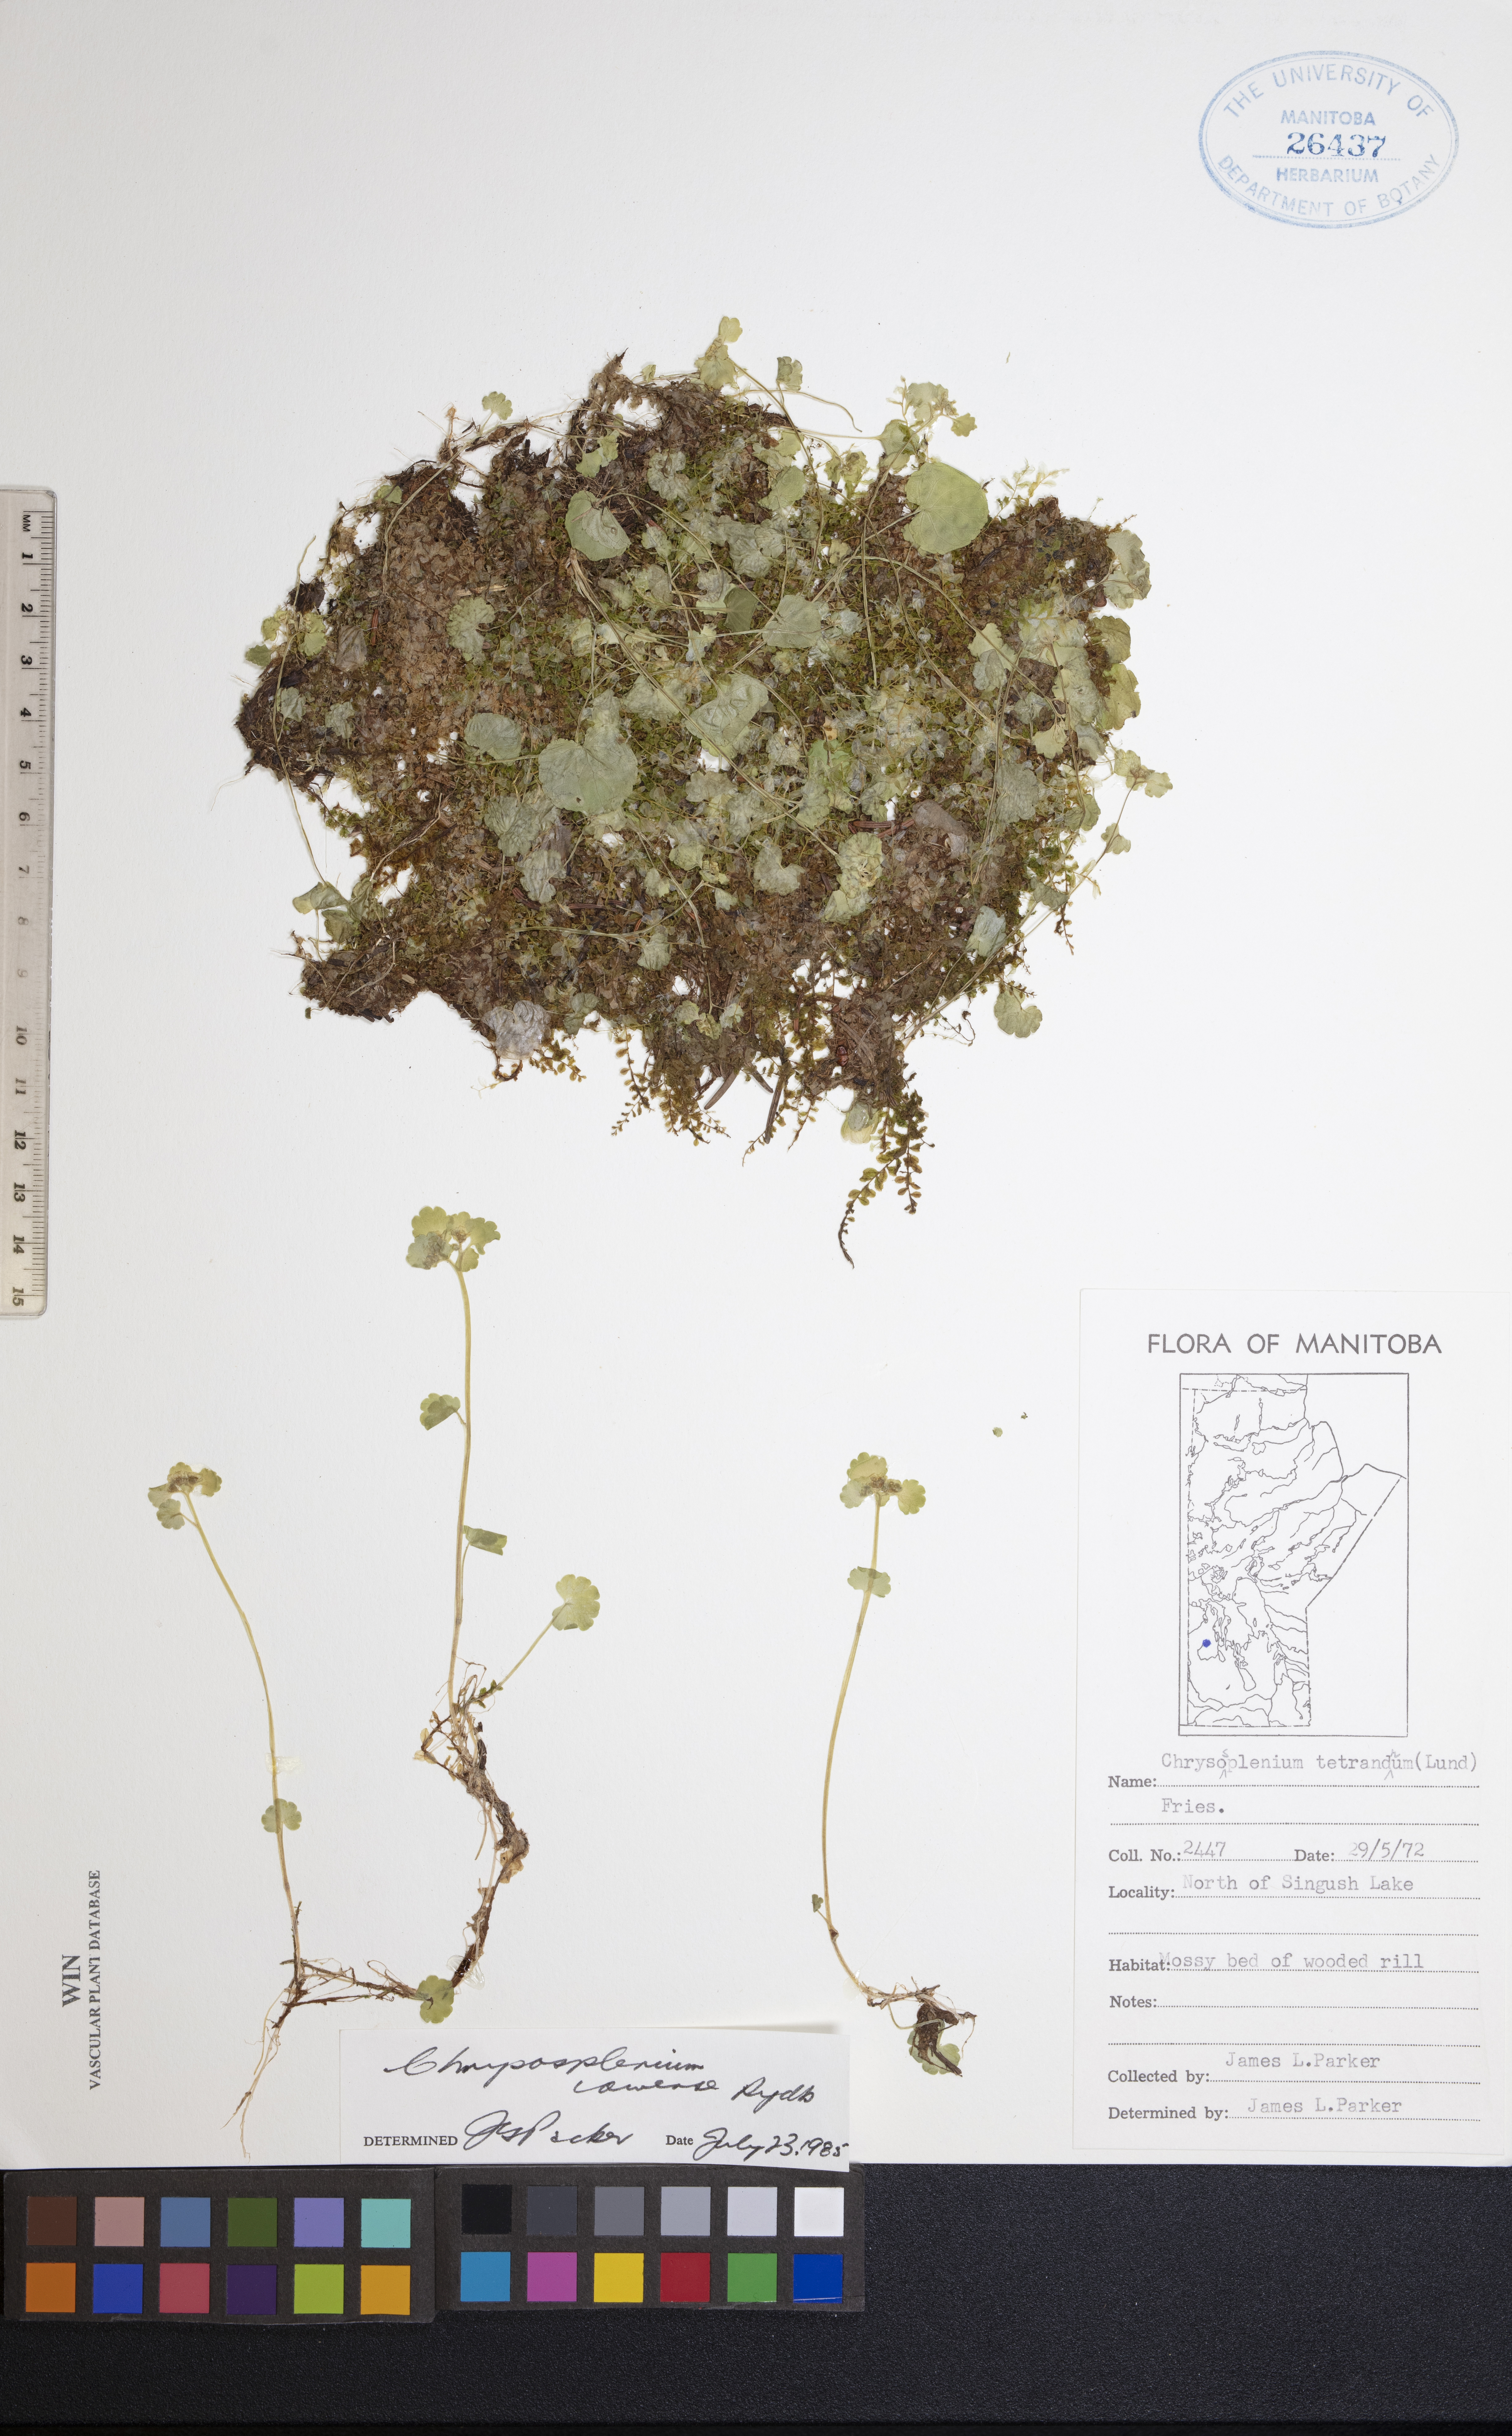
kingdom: Plantae
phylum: Tracheophyta
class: Magnoliopsida
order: Saxifragales
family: Saxifragaceae
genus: Chrysosplenium
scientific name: Chrysosplenium iowense
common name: Iowa golden carpet
